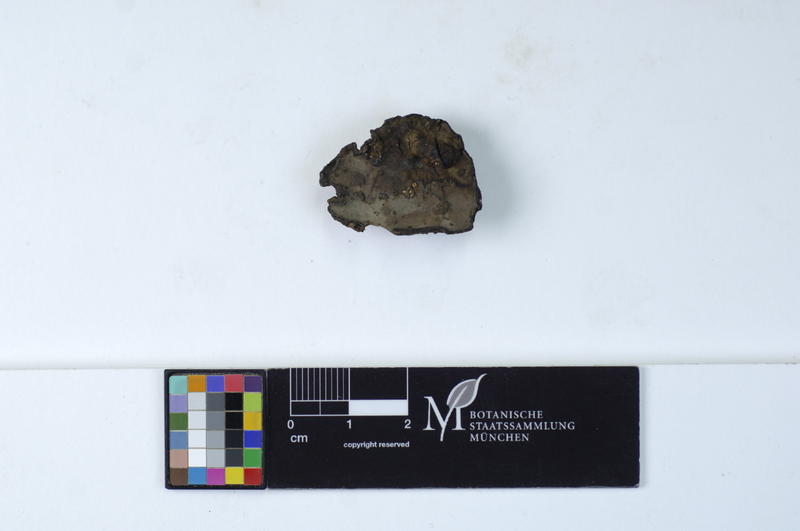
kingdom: Plantae
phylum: Tracheophyta
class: Magnoliopsida
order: Lamiales
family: Oleaceae
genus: Olea
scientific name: Olea europaea
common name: Olive
